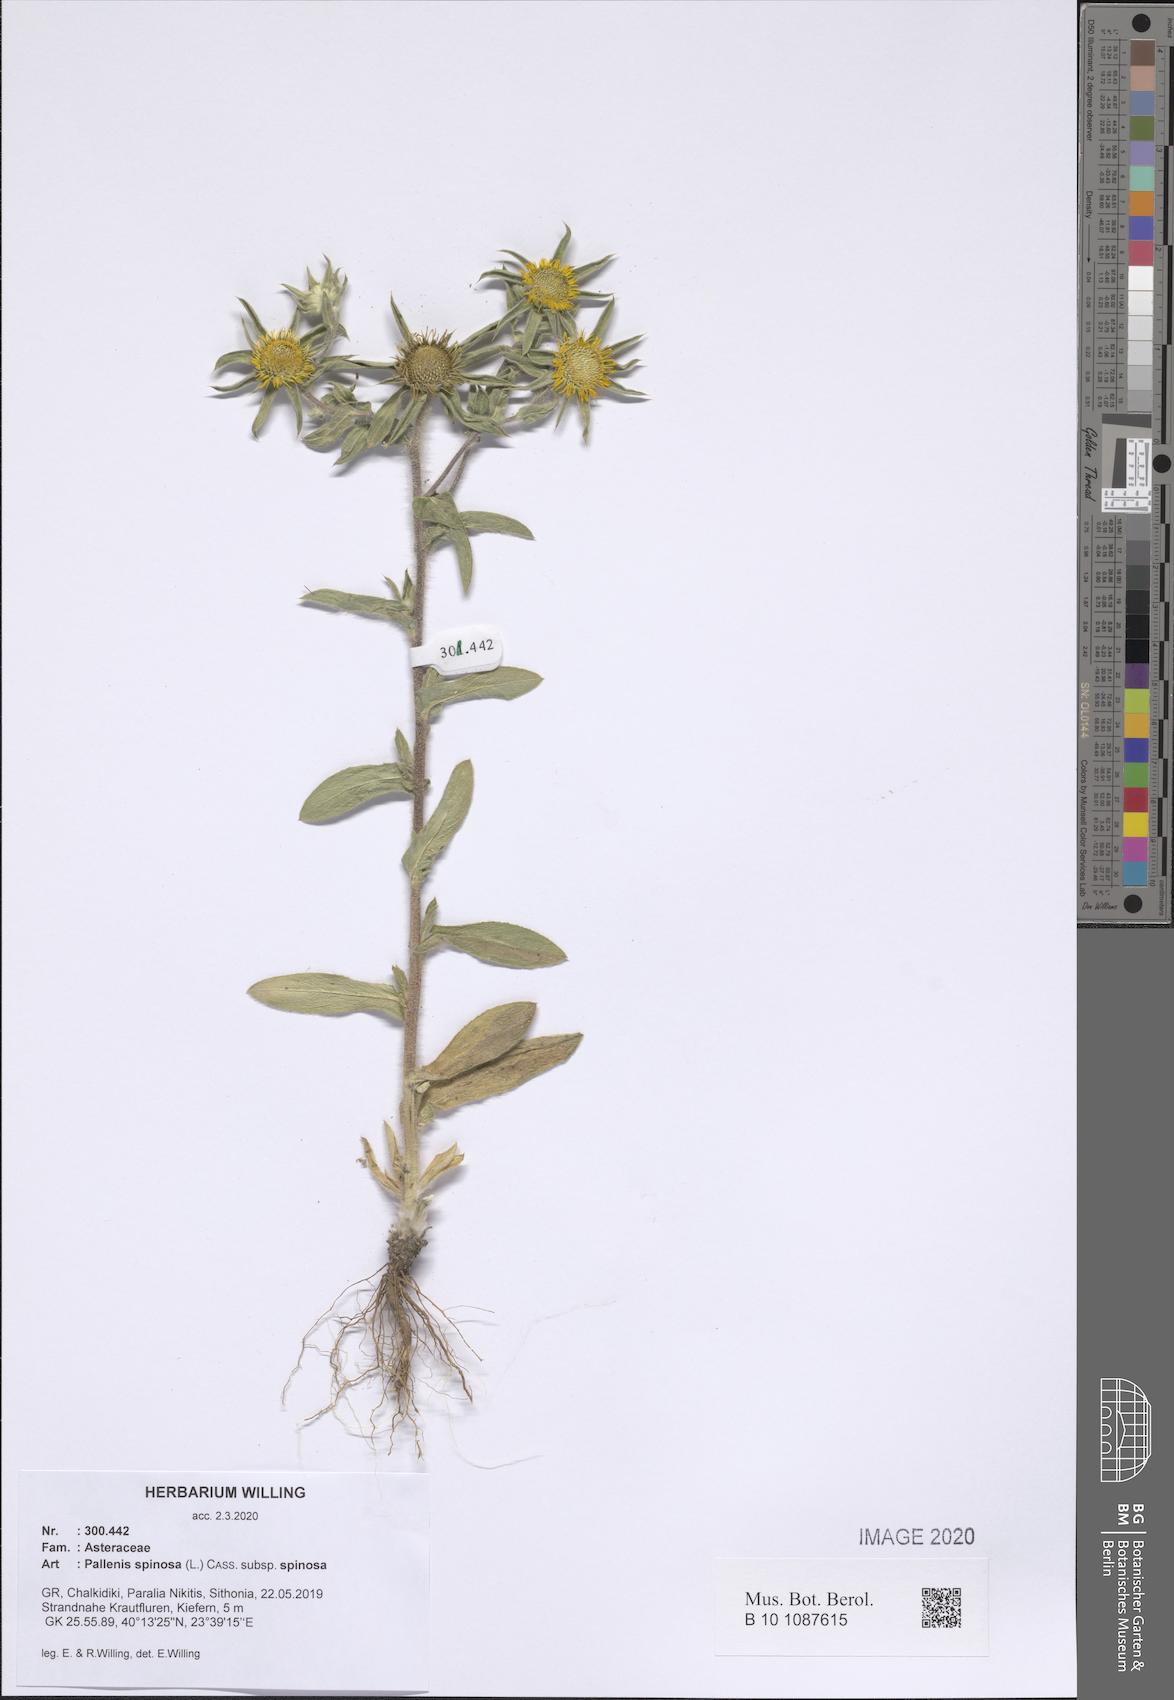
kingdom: Plantae
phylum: Tracheophyta
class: Magnoliopsida
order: Asterales
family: Asteraceae
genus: Pallenis
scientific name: Pallenis spinosa
